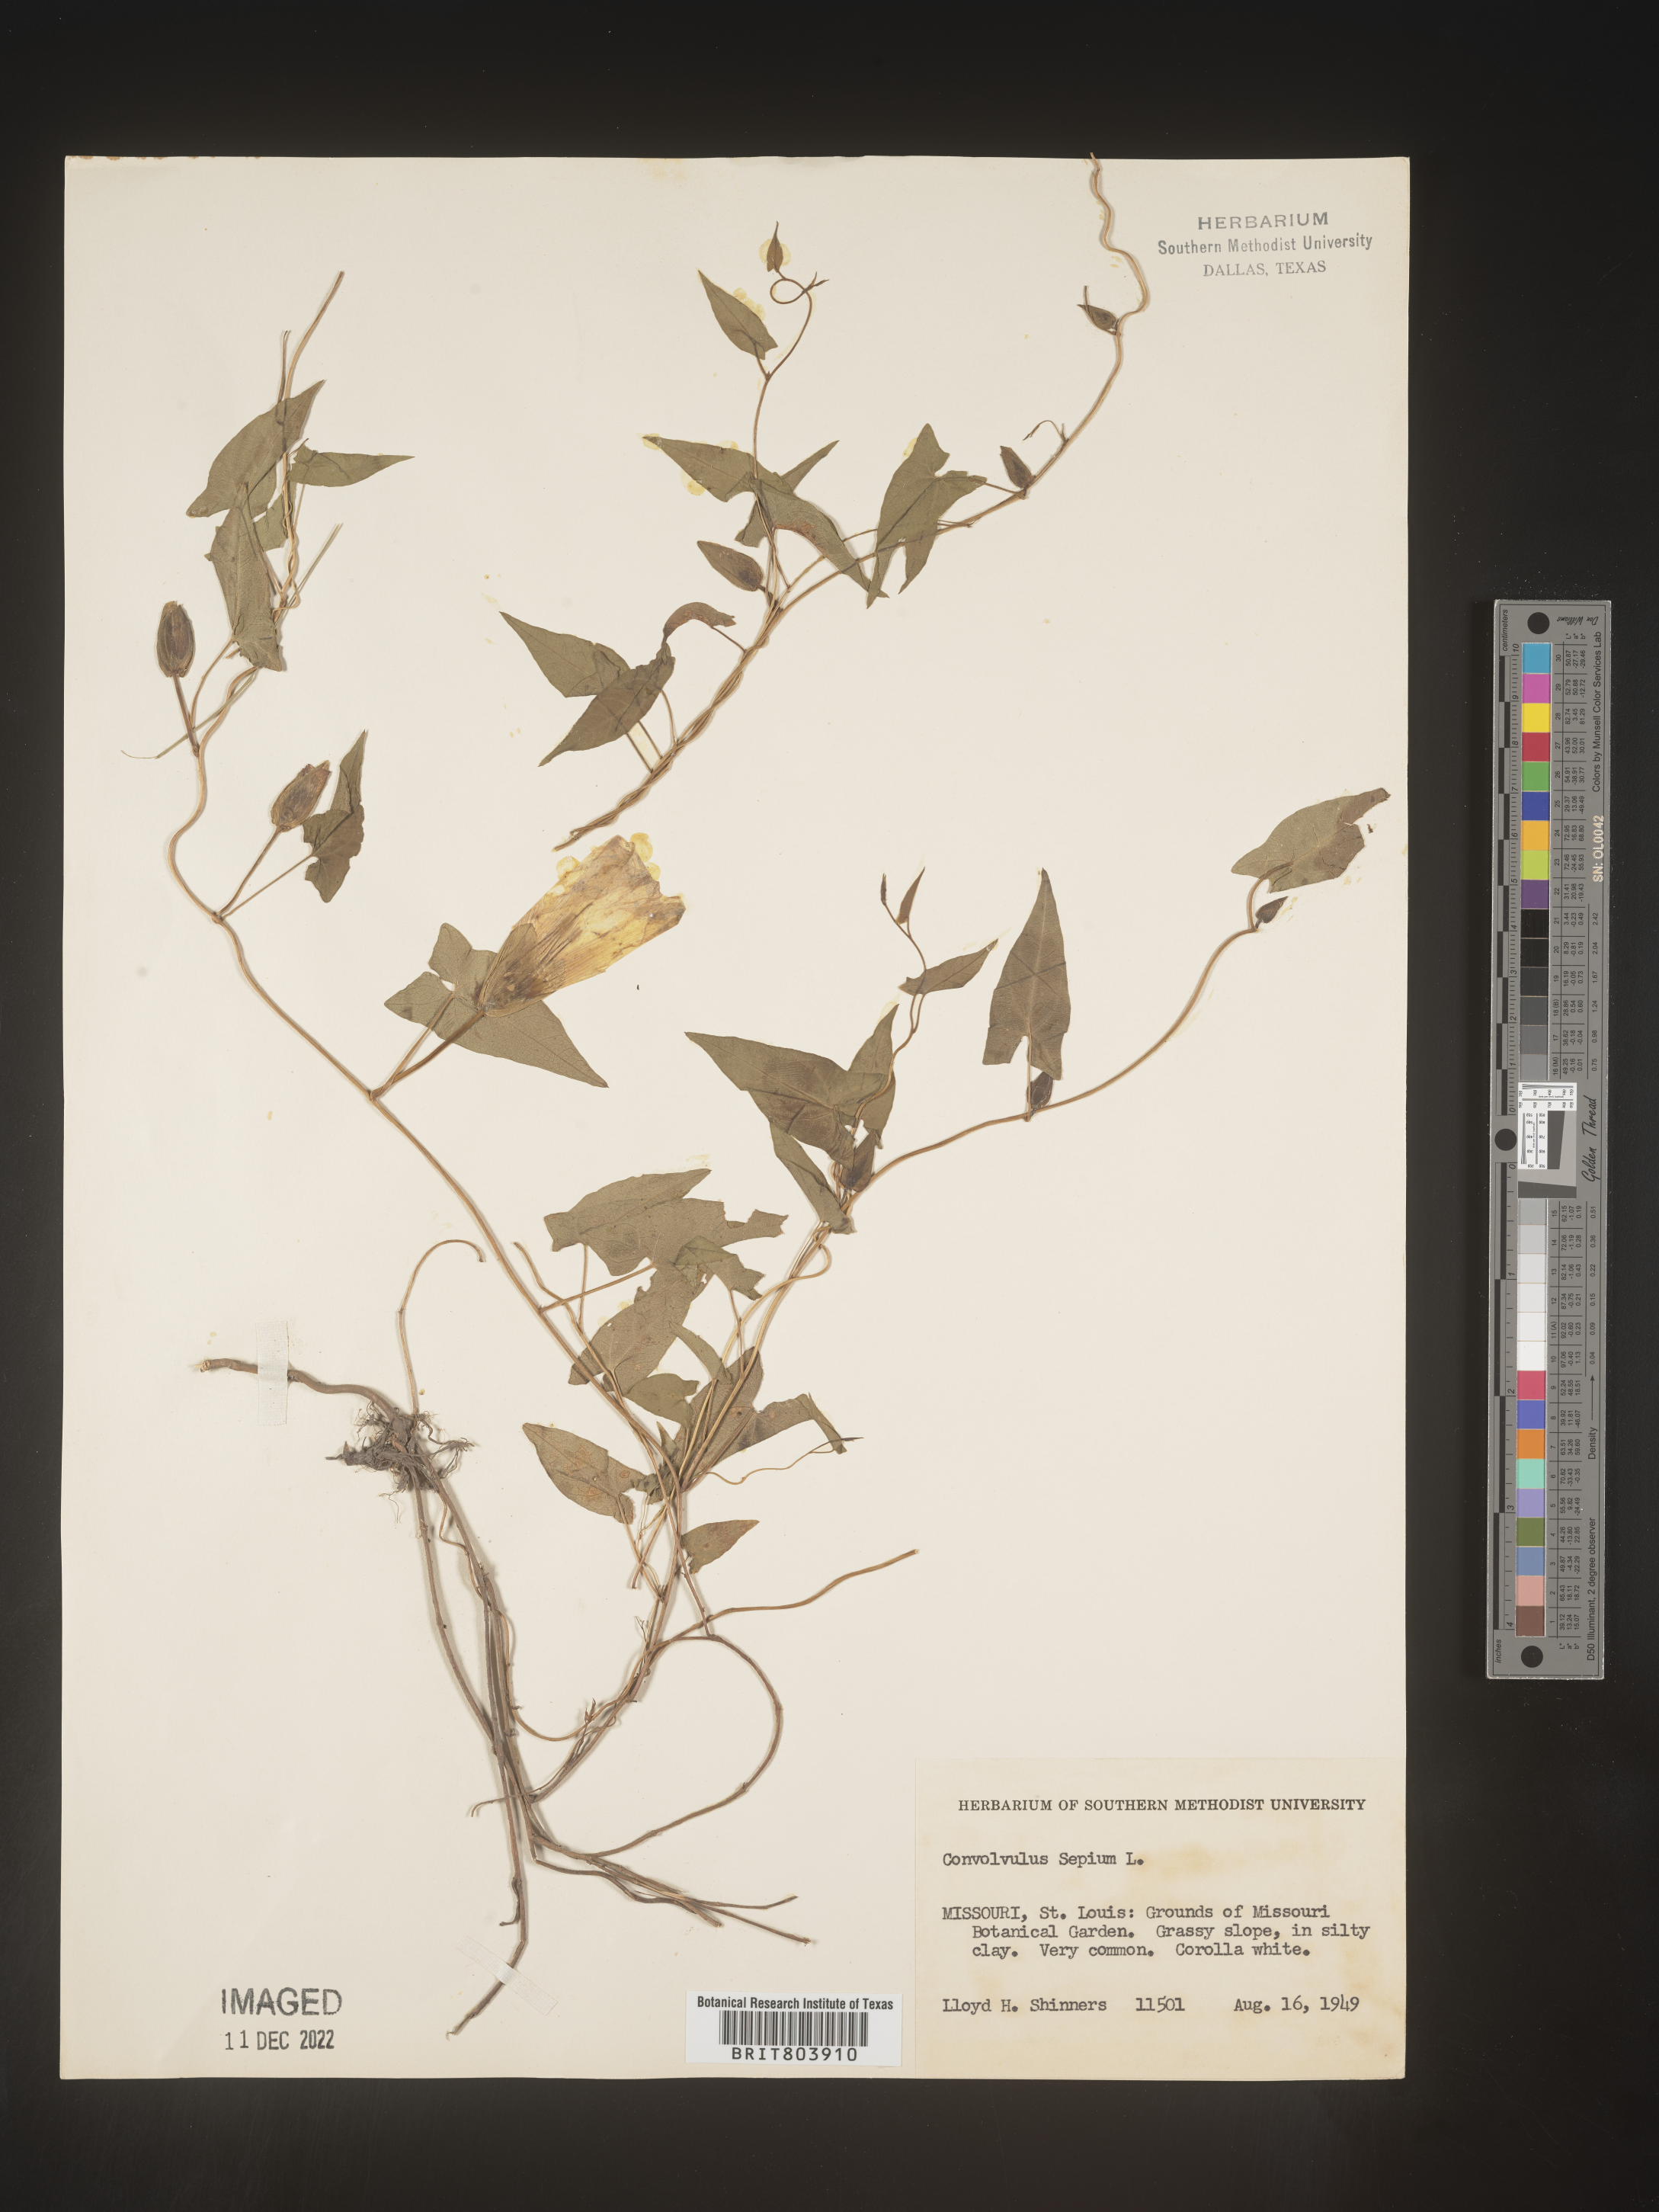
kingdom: Plantae
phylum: Tracheophyta
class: Magnoliopsida
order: Solanales
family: Convolvulaceae
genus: Calystegia
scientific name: Calystegia sepium
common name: Hedge bindweed
